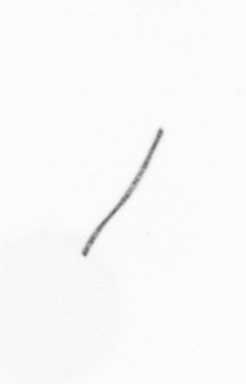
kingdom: Chromista
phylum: Ochrophyta
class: Bacillariophyceae
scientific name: Bacillariophyceae
